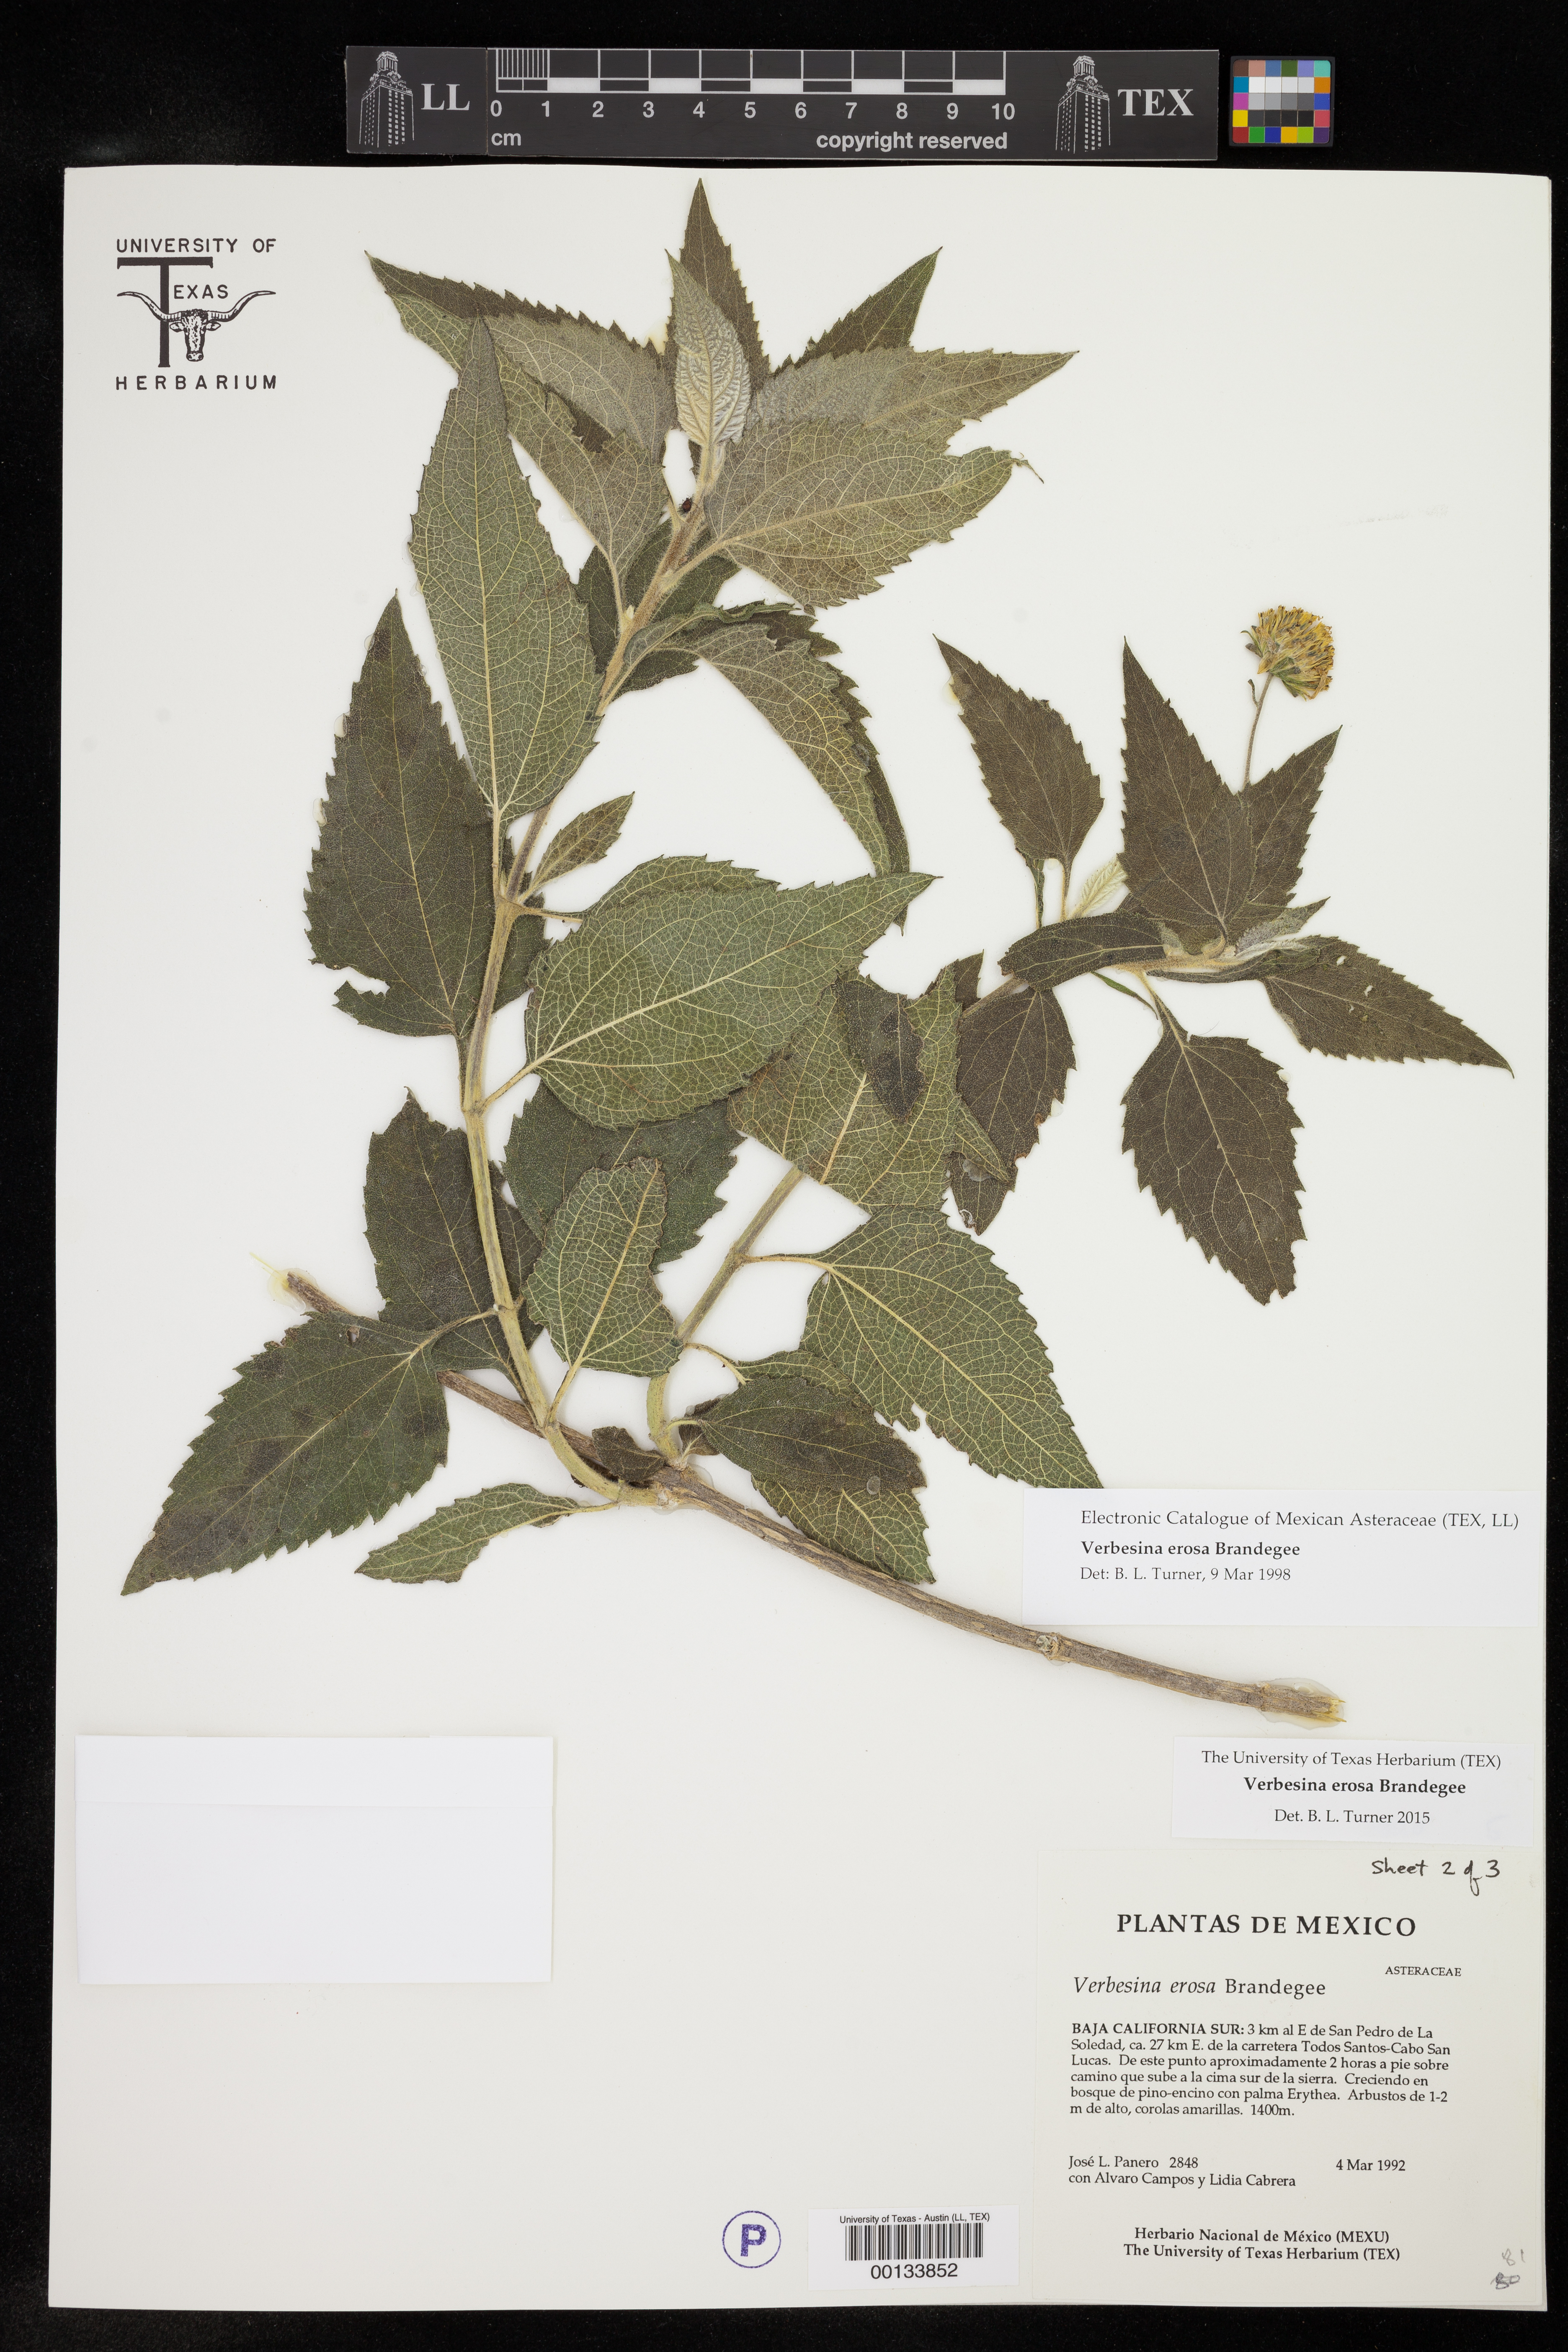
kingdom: Plantae
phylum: Tracheophyta
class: Magnoliopsida
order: Asterales
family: Asteraceae
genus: Verbesina
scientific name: Verbesina erosa
